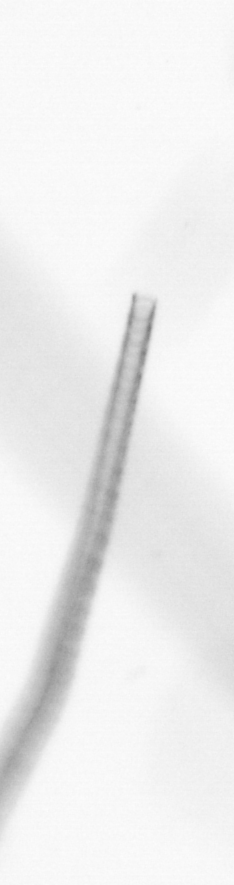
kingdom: Animalia
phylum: Chordata
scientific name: Chordata
